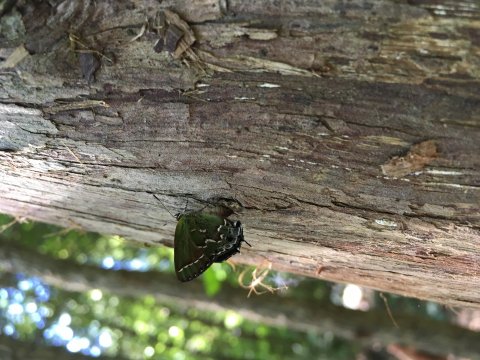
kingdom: Animalia
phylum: Arthropoda
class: Insecta
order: Lepidoptera
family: Lycaenidae
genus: Mitoura
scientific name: Mitoura gryneus
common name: Juniper Hairstreak
